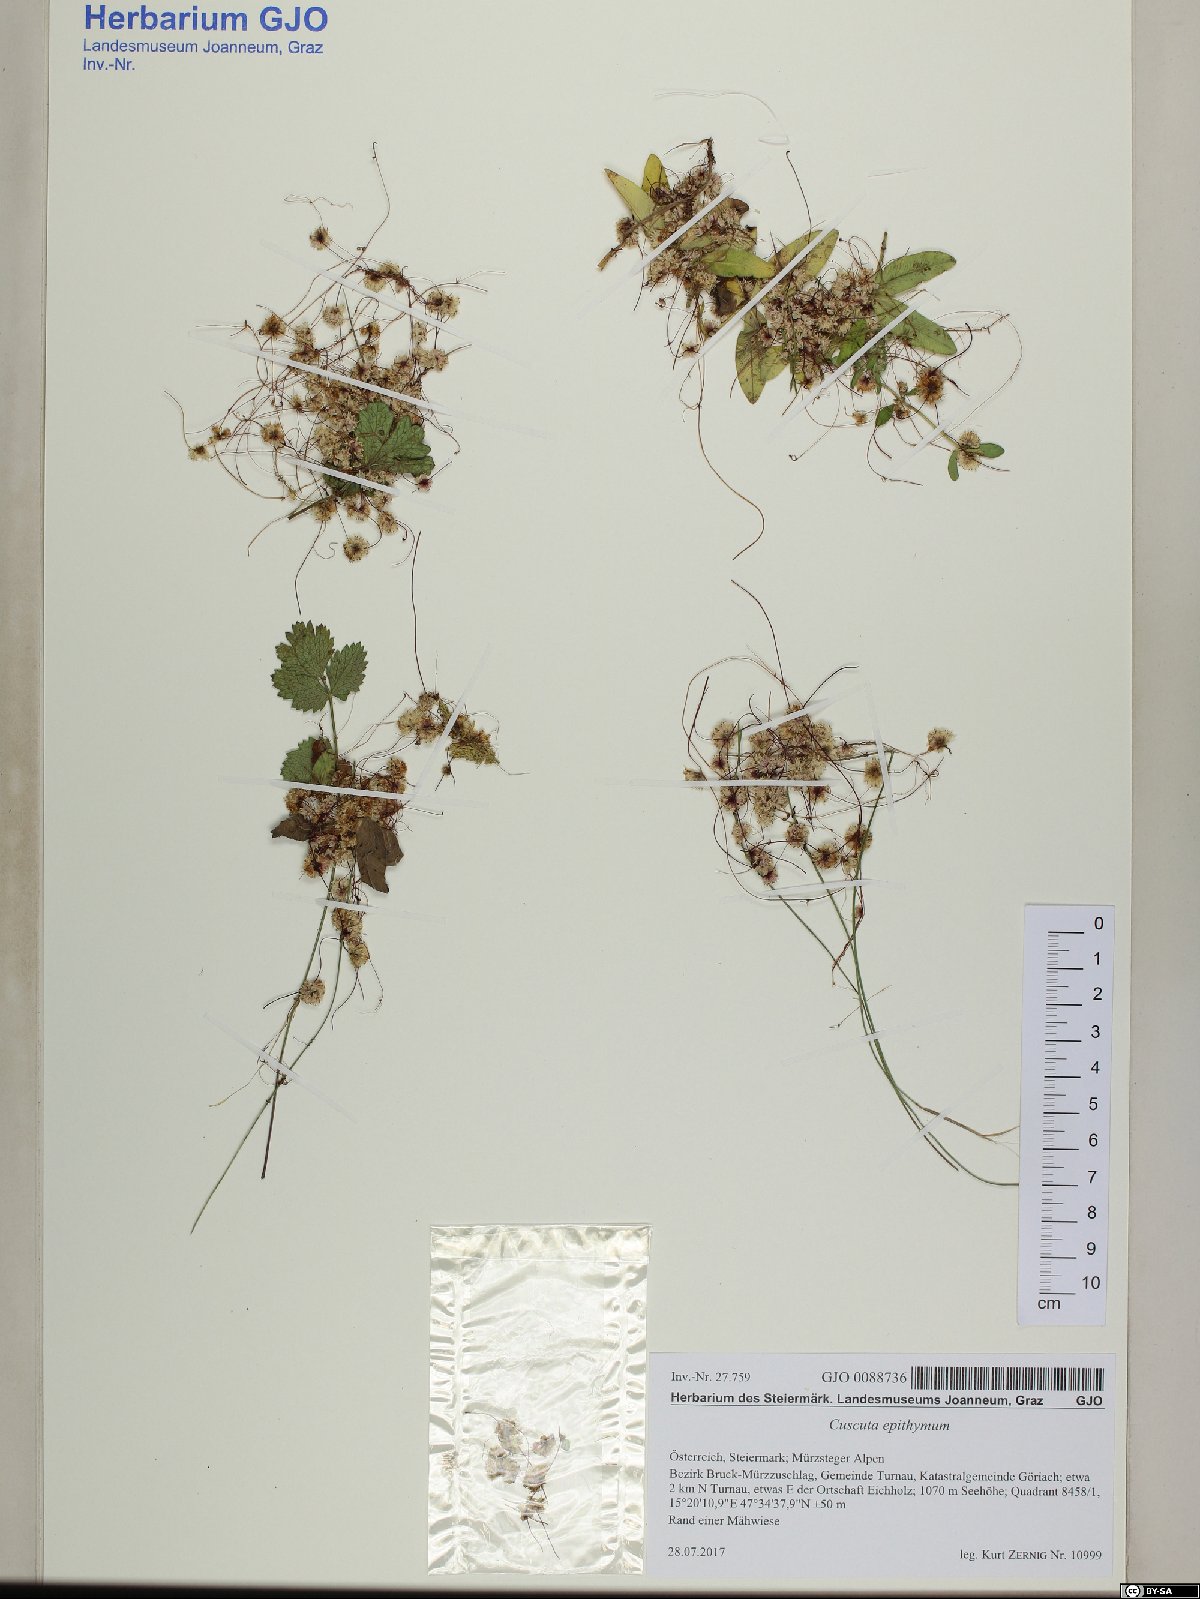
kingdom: Plantae
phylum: Tracheophyta
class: Magnoliopsida
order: Solanales
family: Convolvulaceae
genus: Cuscuta
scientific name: Cuscuta epithymum
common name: Clover dodder
